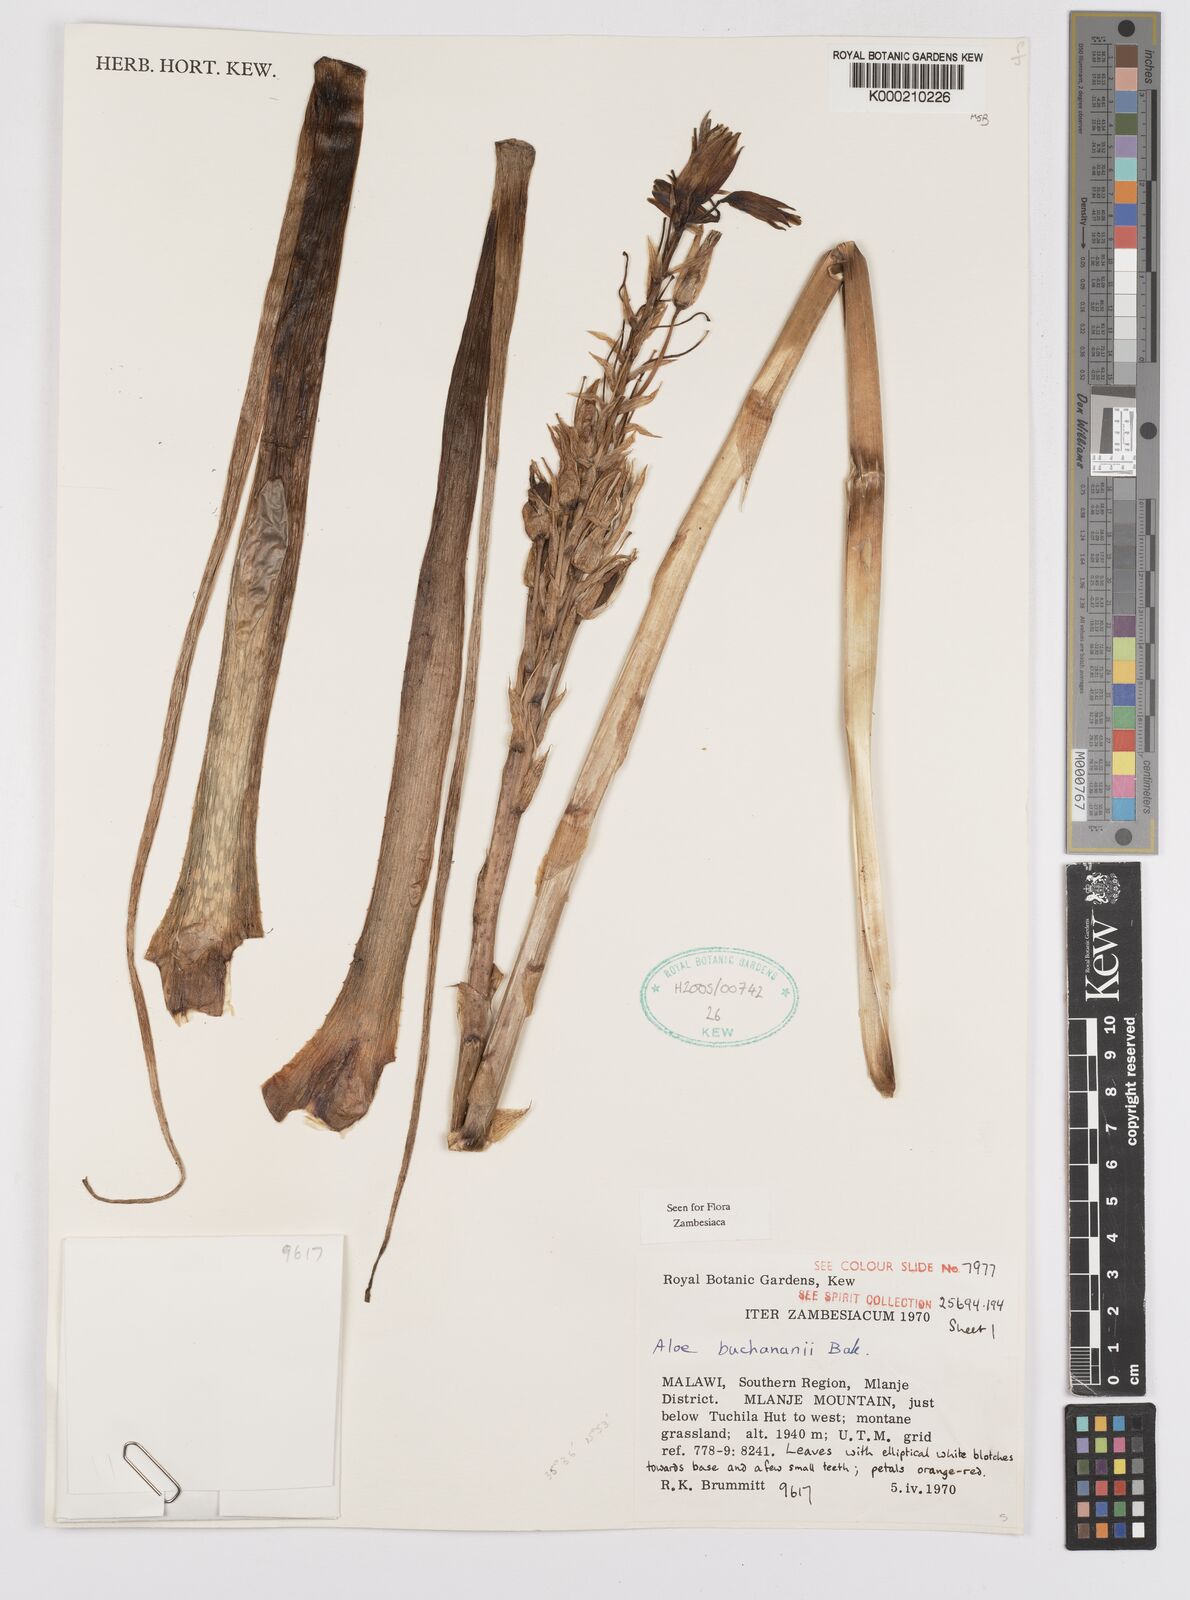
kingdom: Plantae
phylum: Tracheophyta
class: Liliopsida
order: Asparagales
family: Asphodelaceae
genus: Aloe
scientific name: Aloe buchananii
